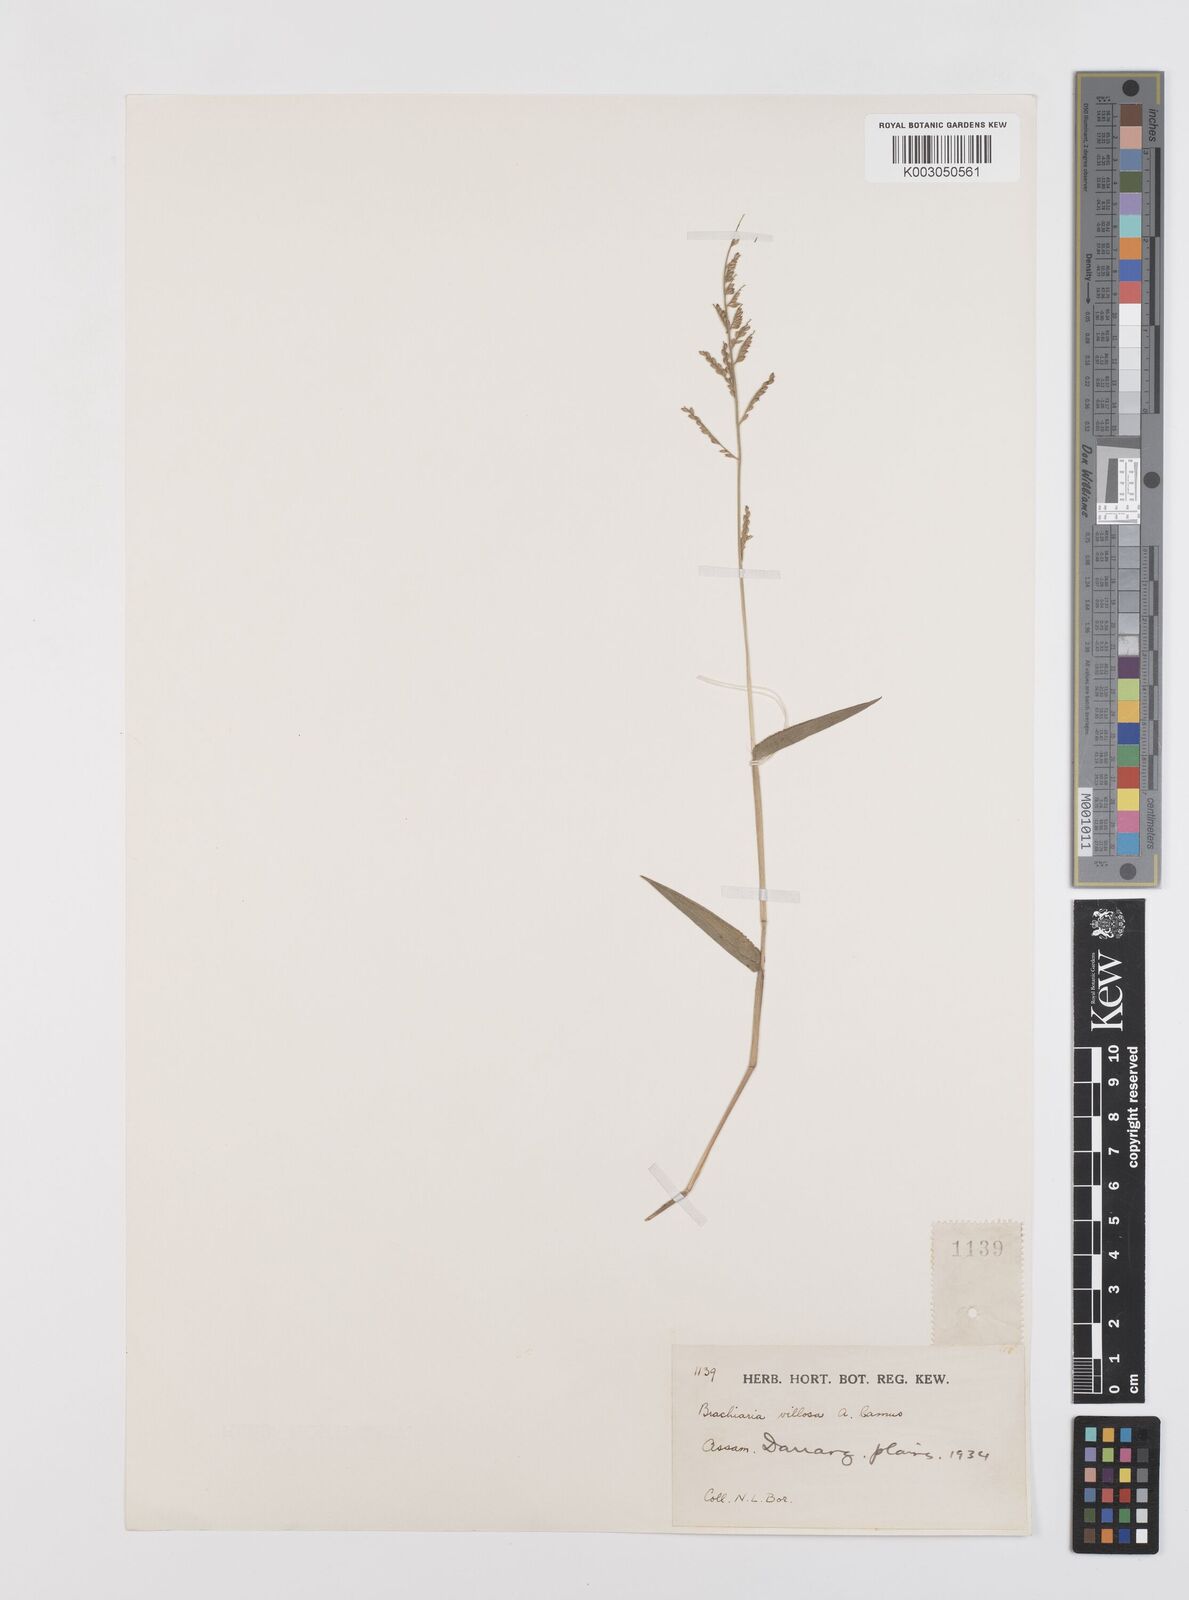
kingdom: Plantae
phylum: Tracheophyta
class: Liliopsida
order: Poales
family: Poaceae
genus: Urochloa
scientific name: Urochloa villosa
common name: Hairy signalgrass
